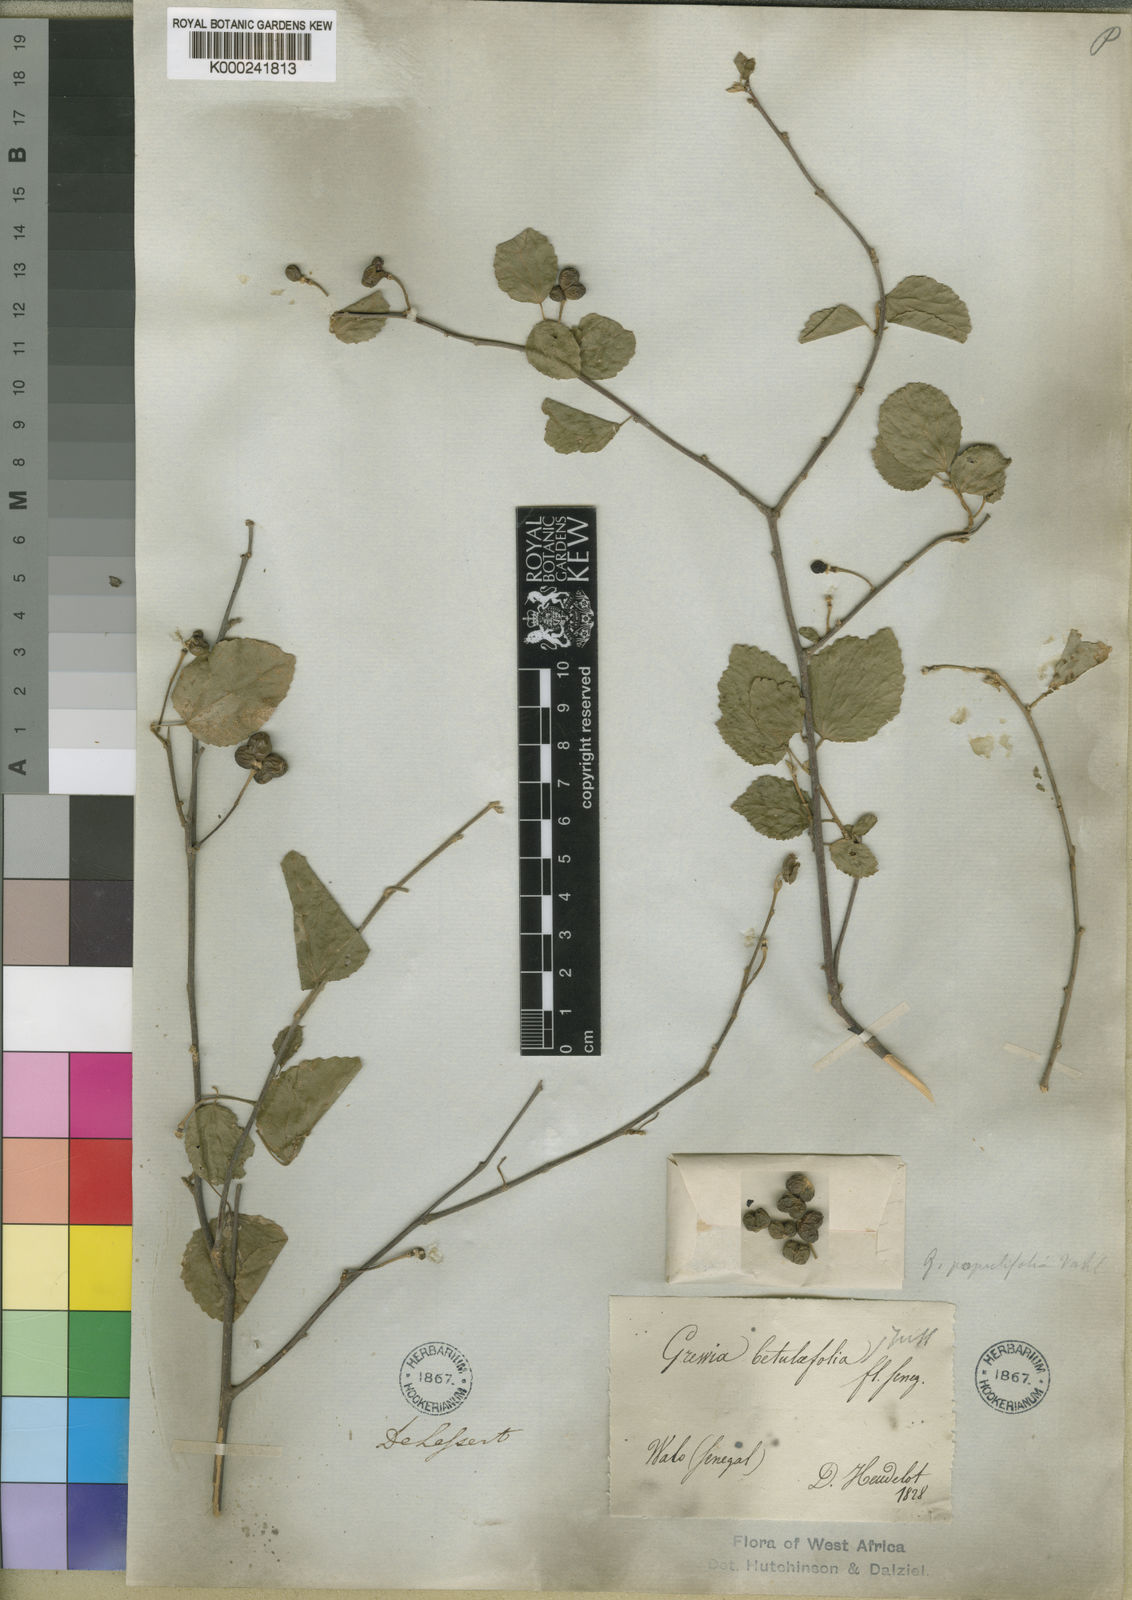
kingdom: Plantae
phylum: Tracheophyta
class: Magnoliopsida
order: Malvales
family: Malvaceae
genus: Grewia
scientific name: Grewia rupestris
